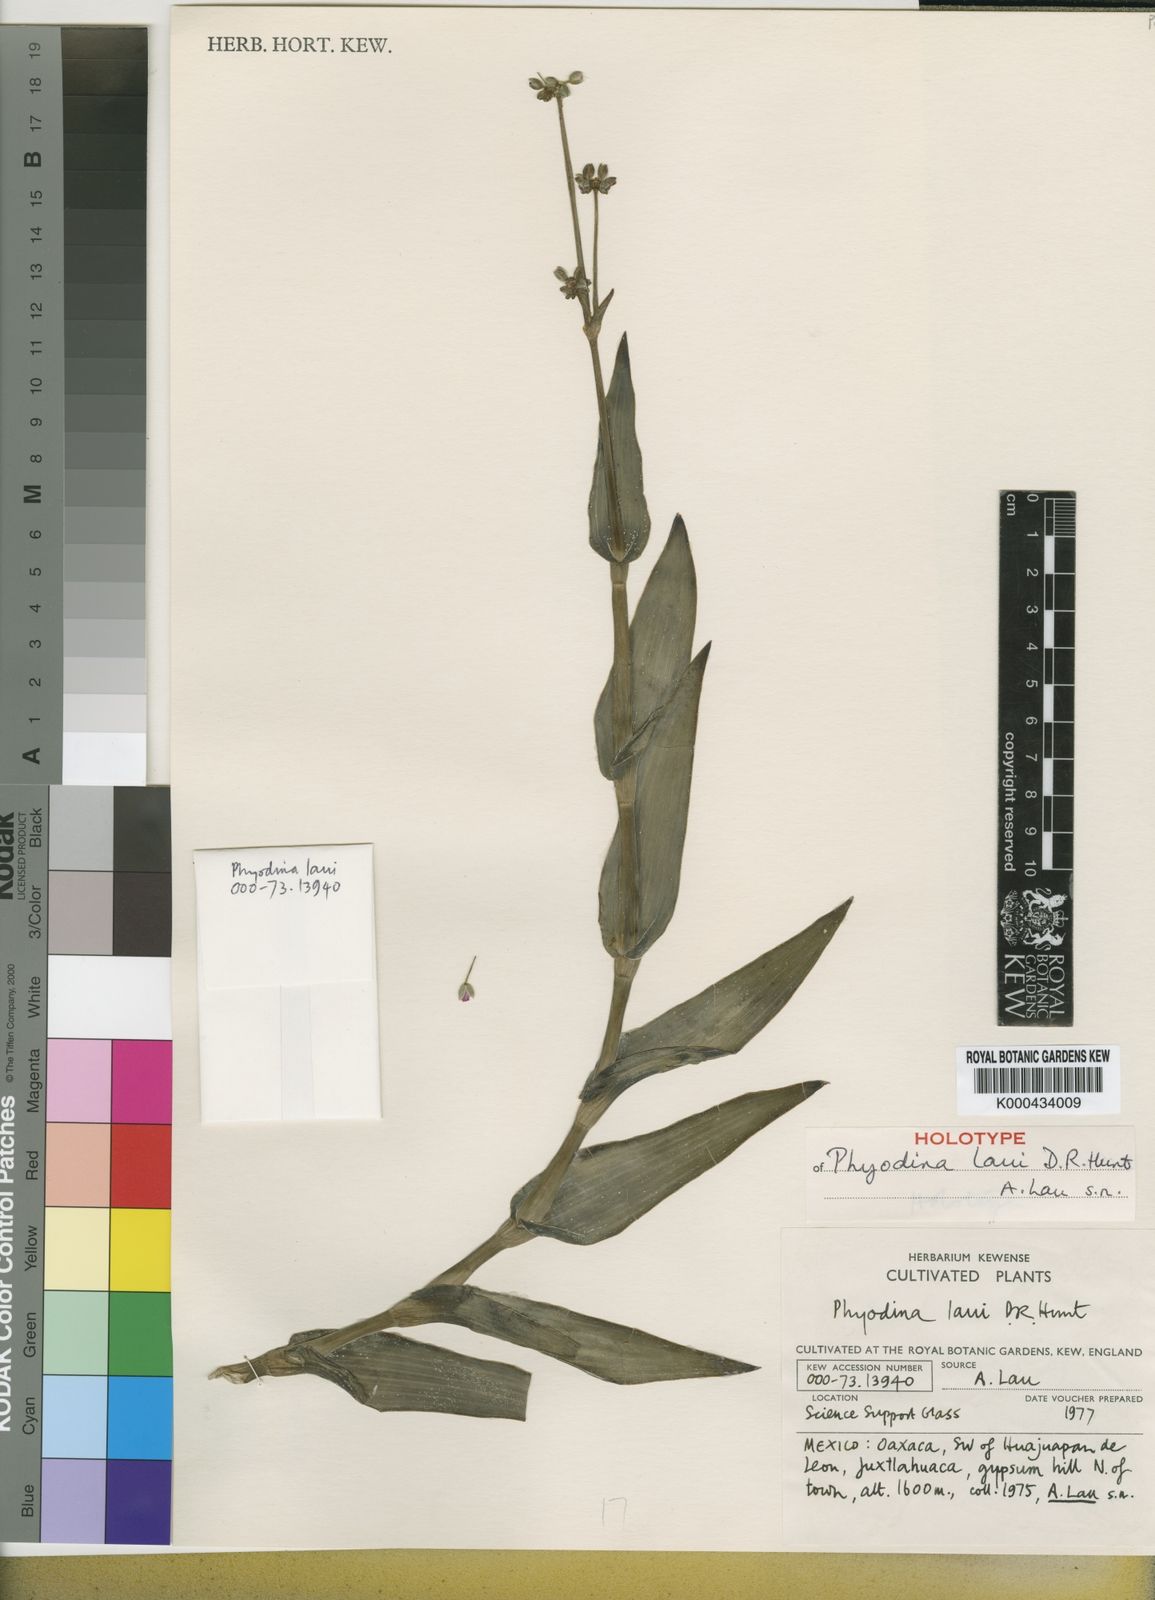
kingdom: Plantae
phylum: Tracheophyta
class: Liliopsida
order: Commelinales
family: Commelinaceae
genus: Callisia
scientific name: Callisia laui
